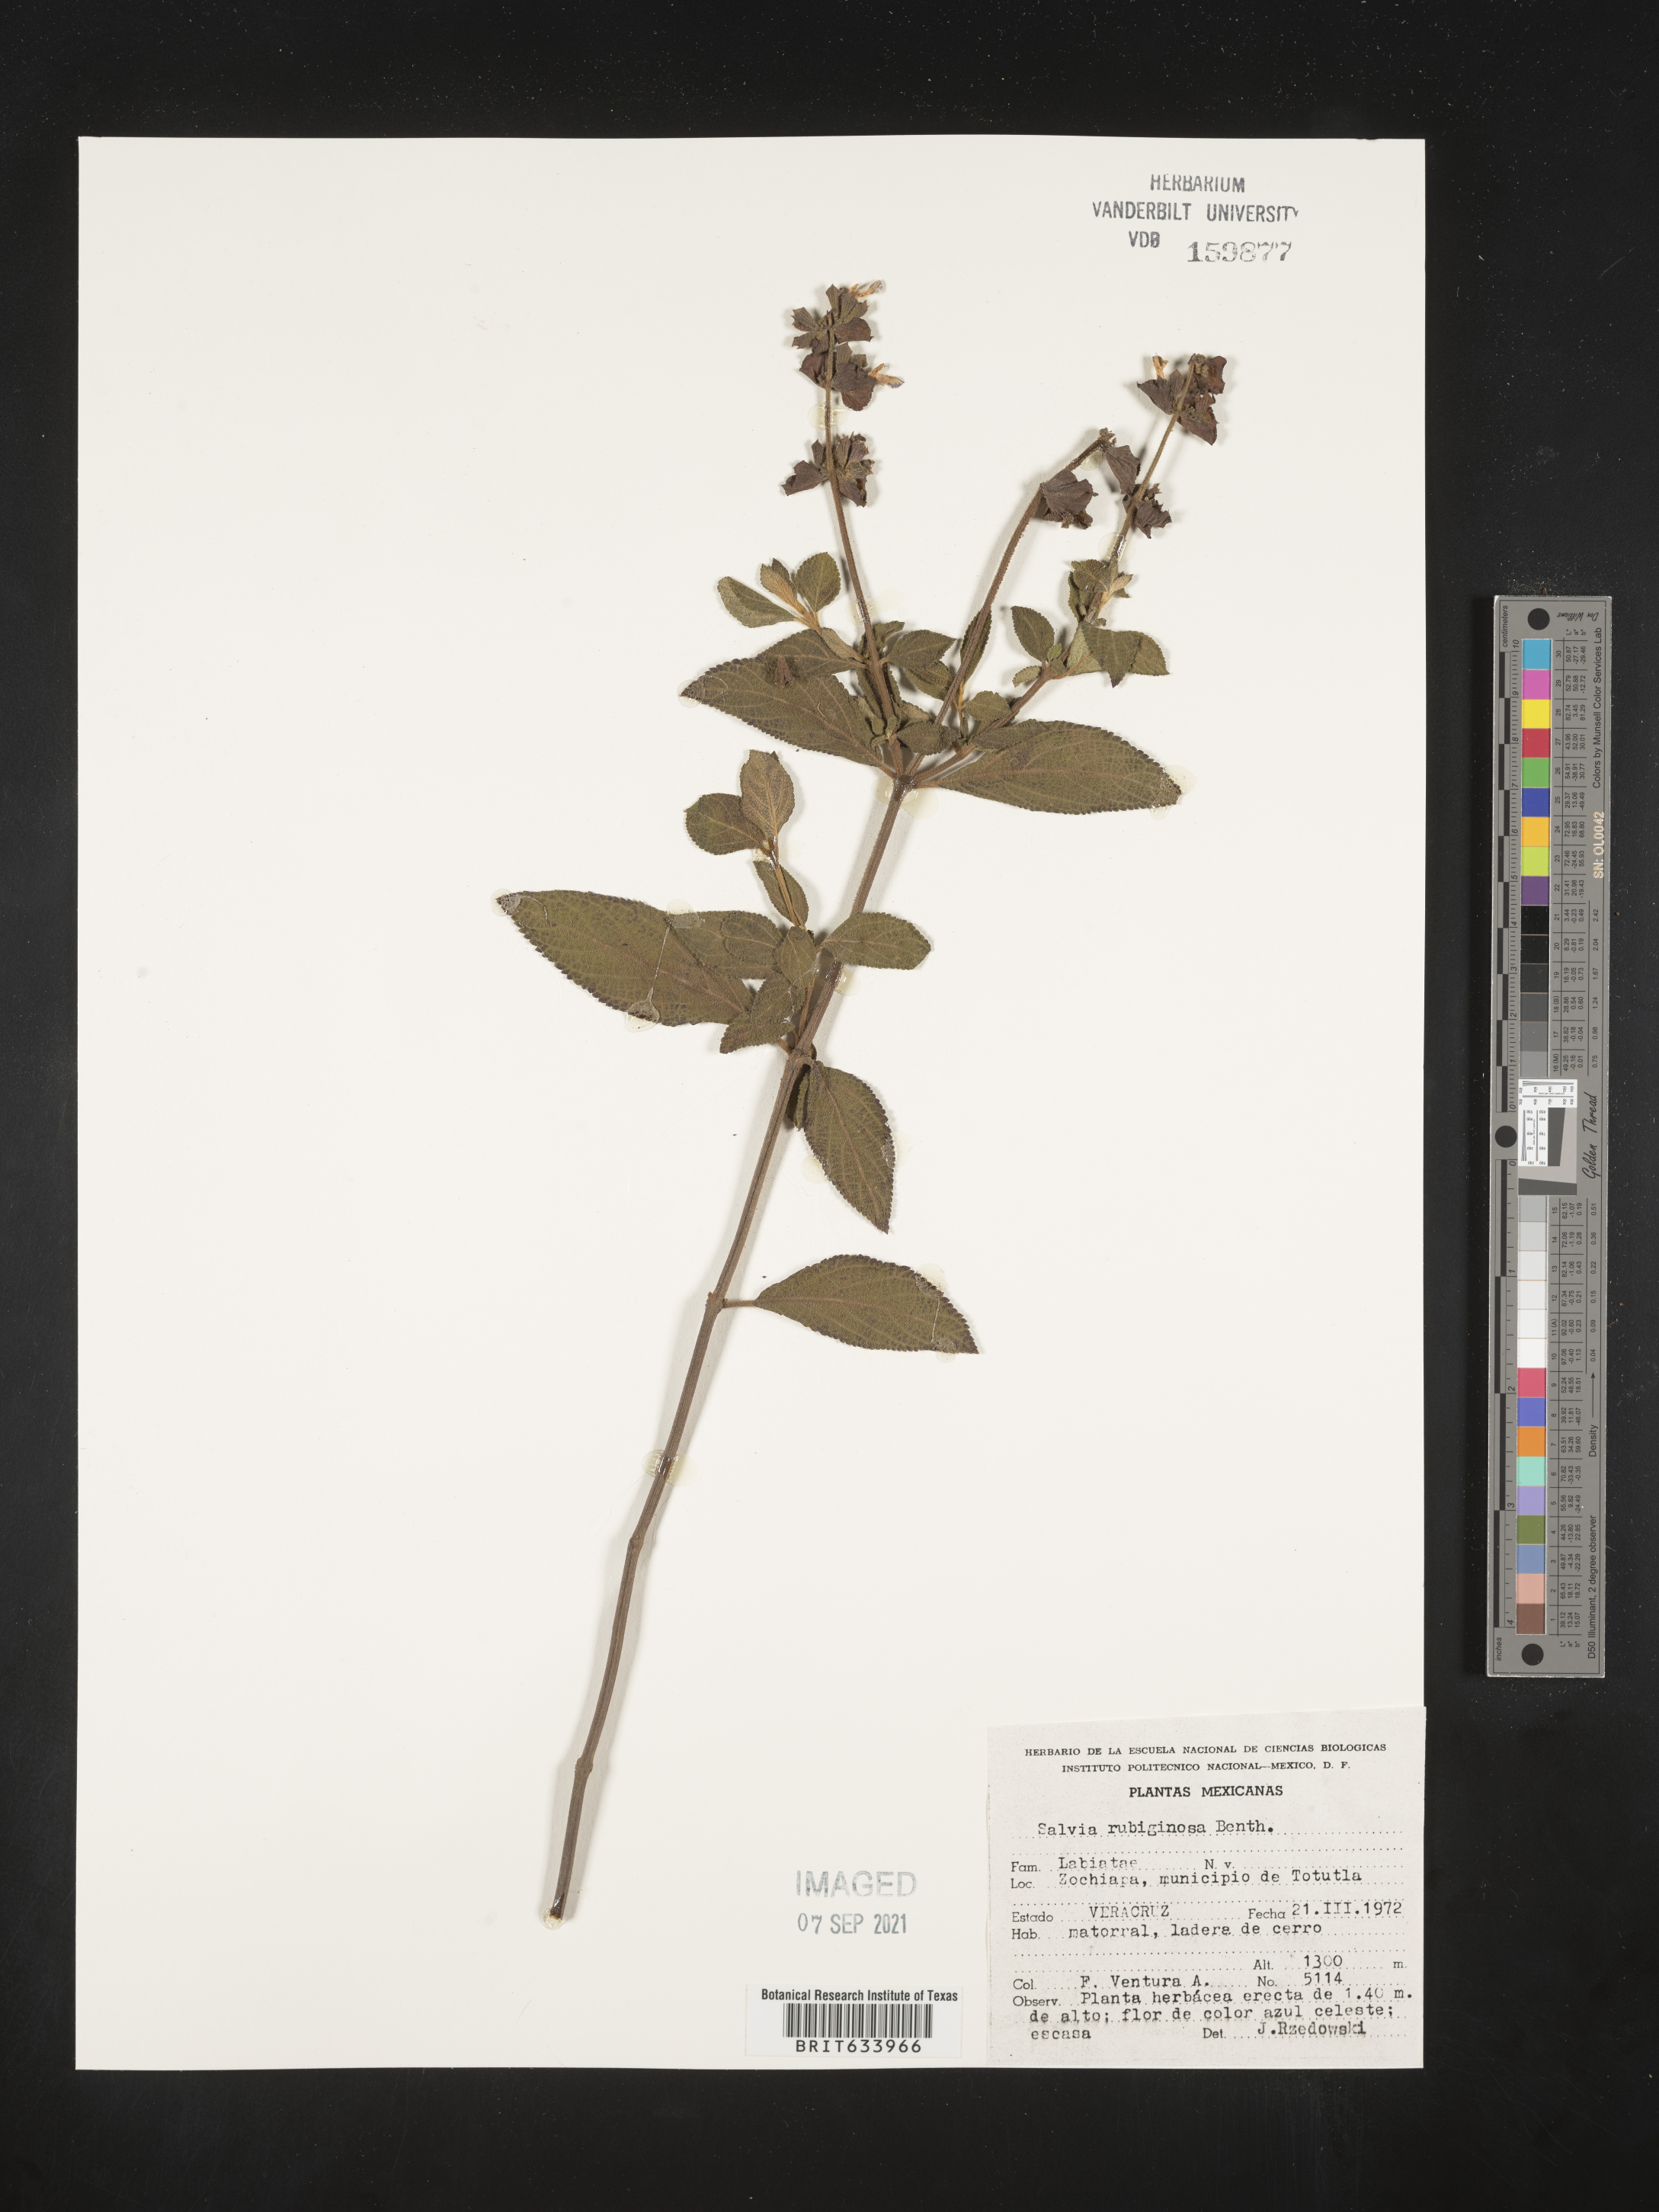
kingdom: Plantae
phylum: Tracheophyta
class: Magnoliopsida
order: Lamiales
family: Lamiaceae
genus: Salvia
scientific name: Salvia
